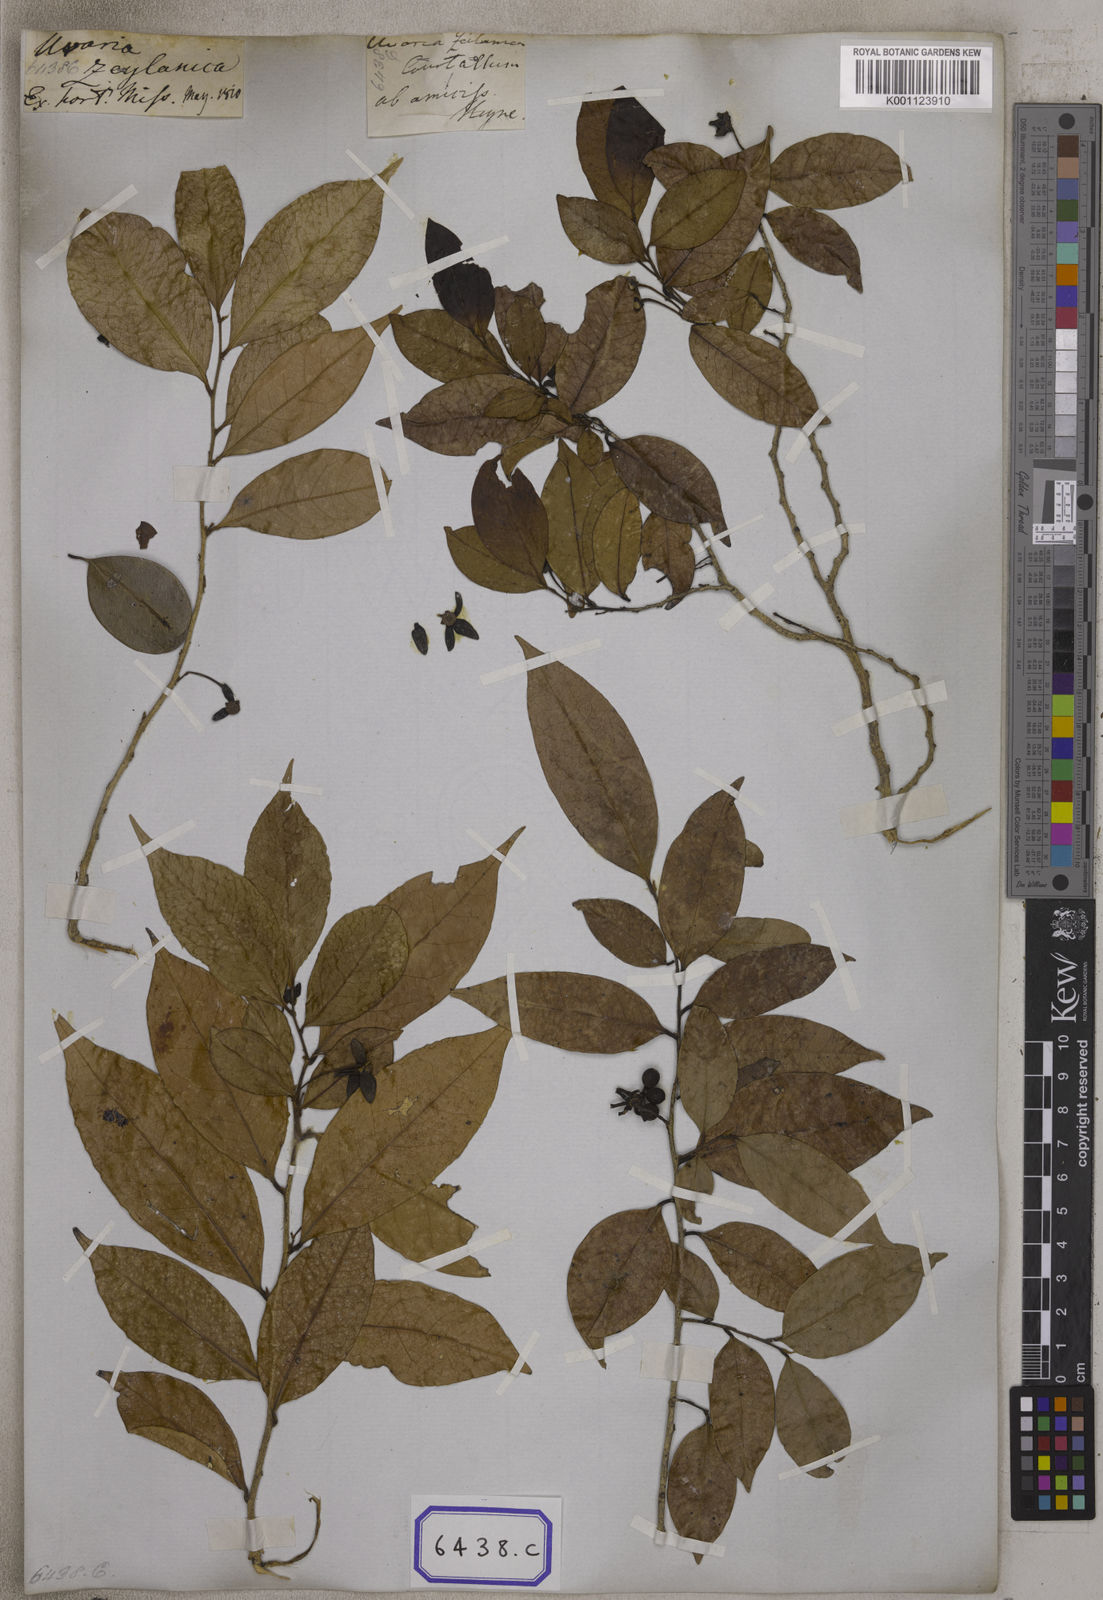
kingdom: Plantae
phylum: Tracheophyta
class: Magnoliopsida
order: Magnoliales
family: Annonaceae
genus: Guatteria
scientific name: Guatteria
